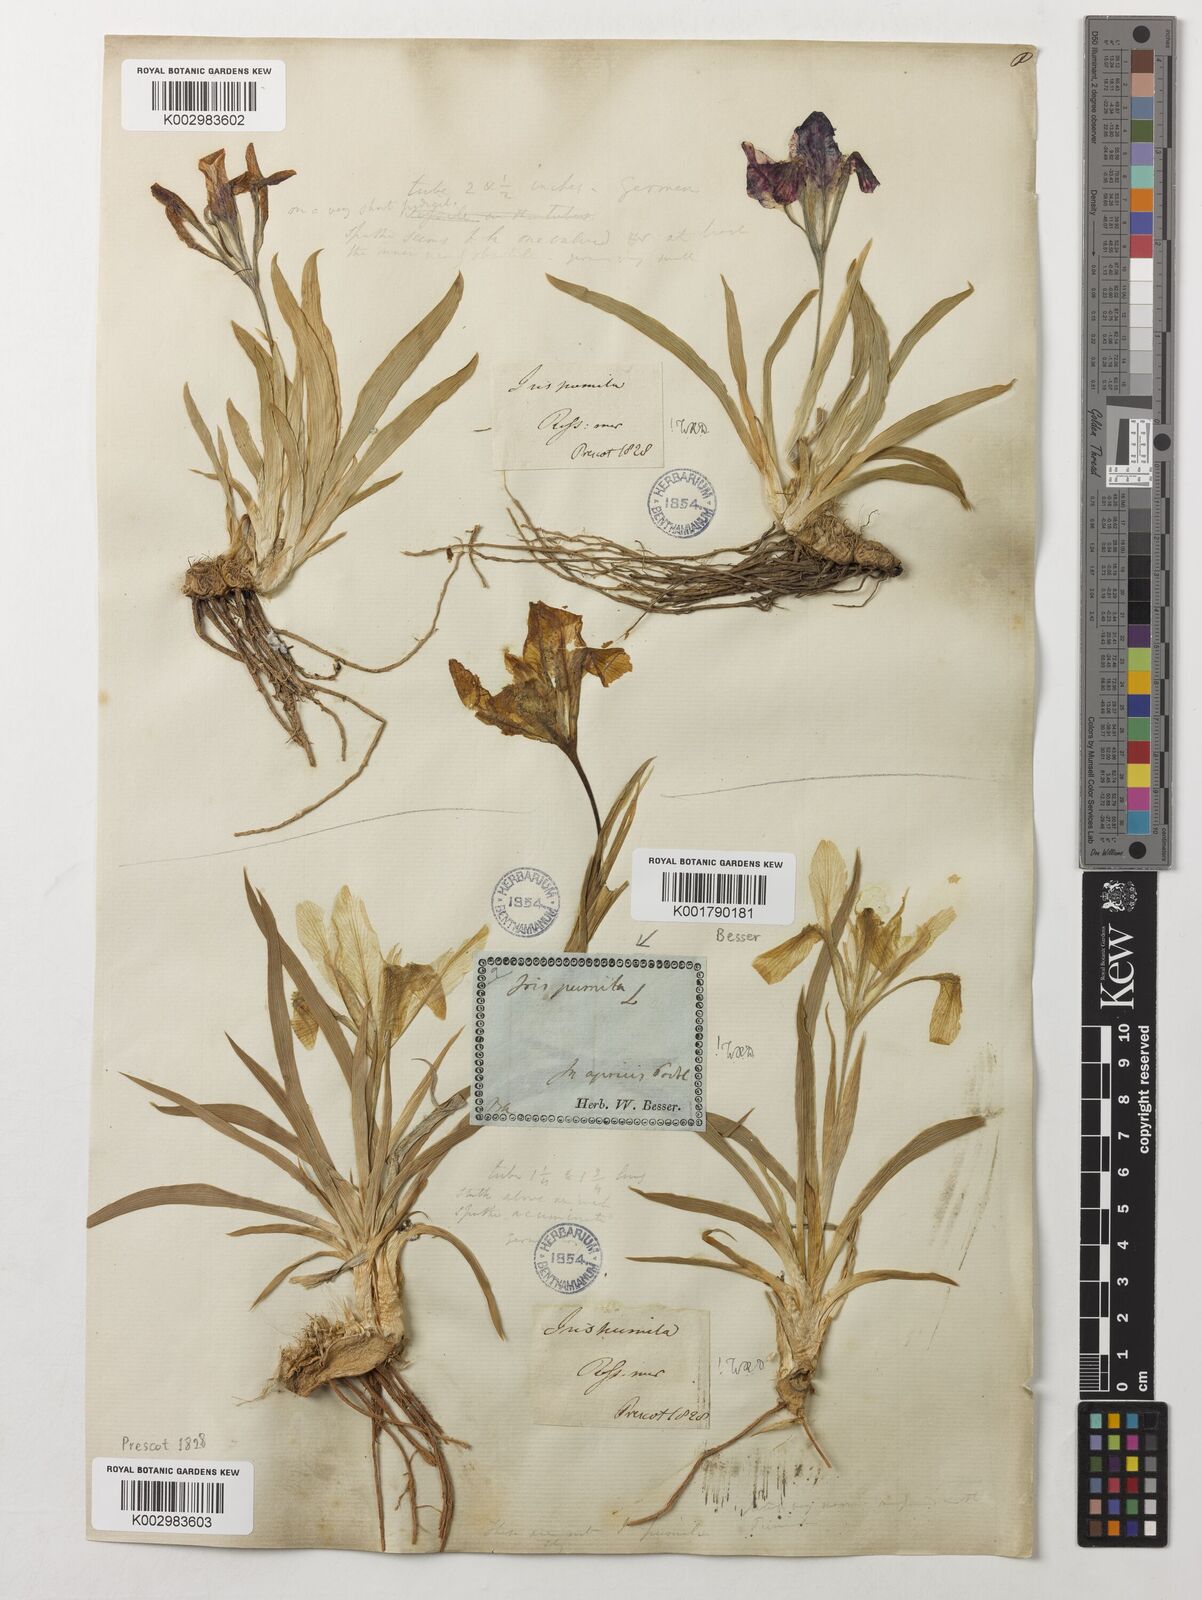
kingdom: Plantae
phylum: Tracheophyta
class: Liliopsida
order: Asparagales
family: Iridaceae
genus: Iris
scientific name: Iris pumila
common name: Dwarf iris
